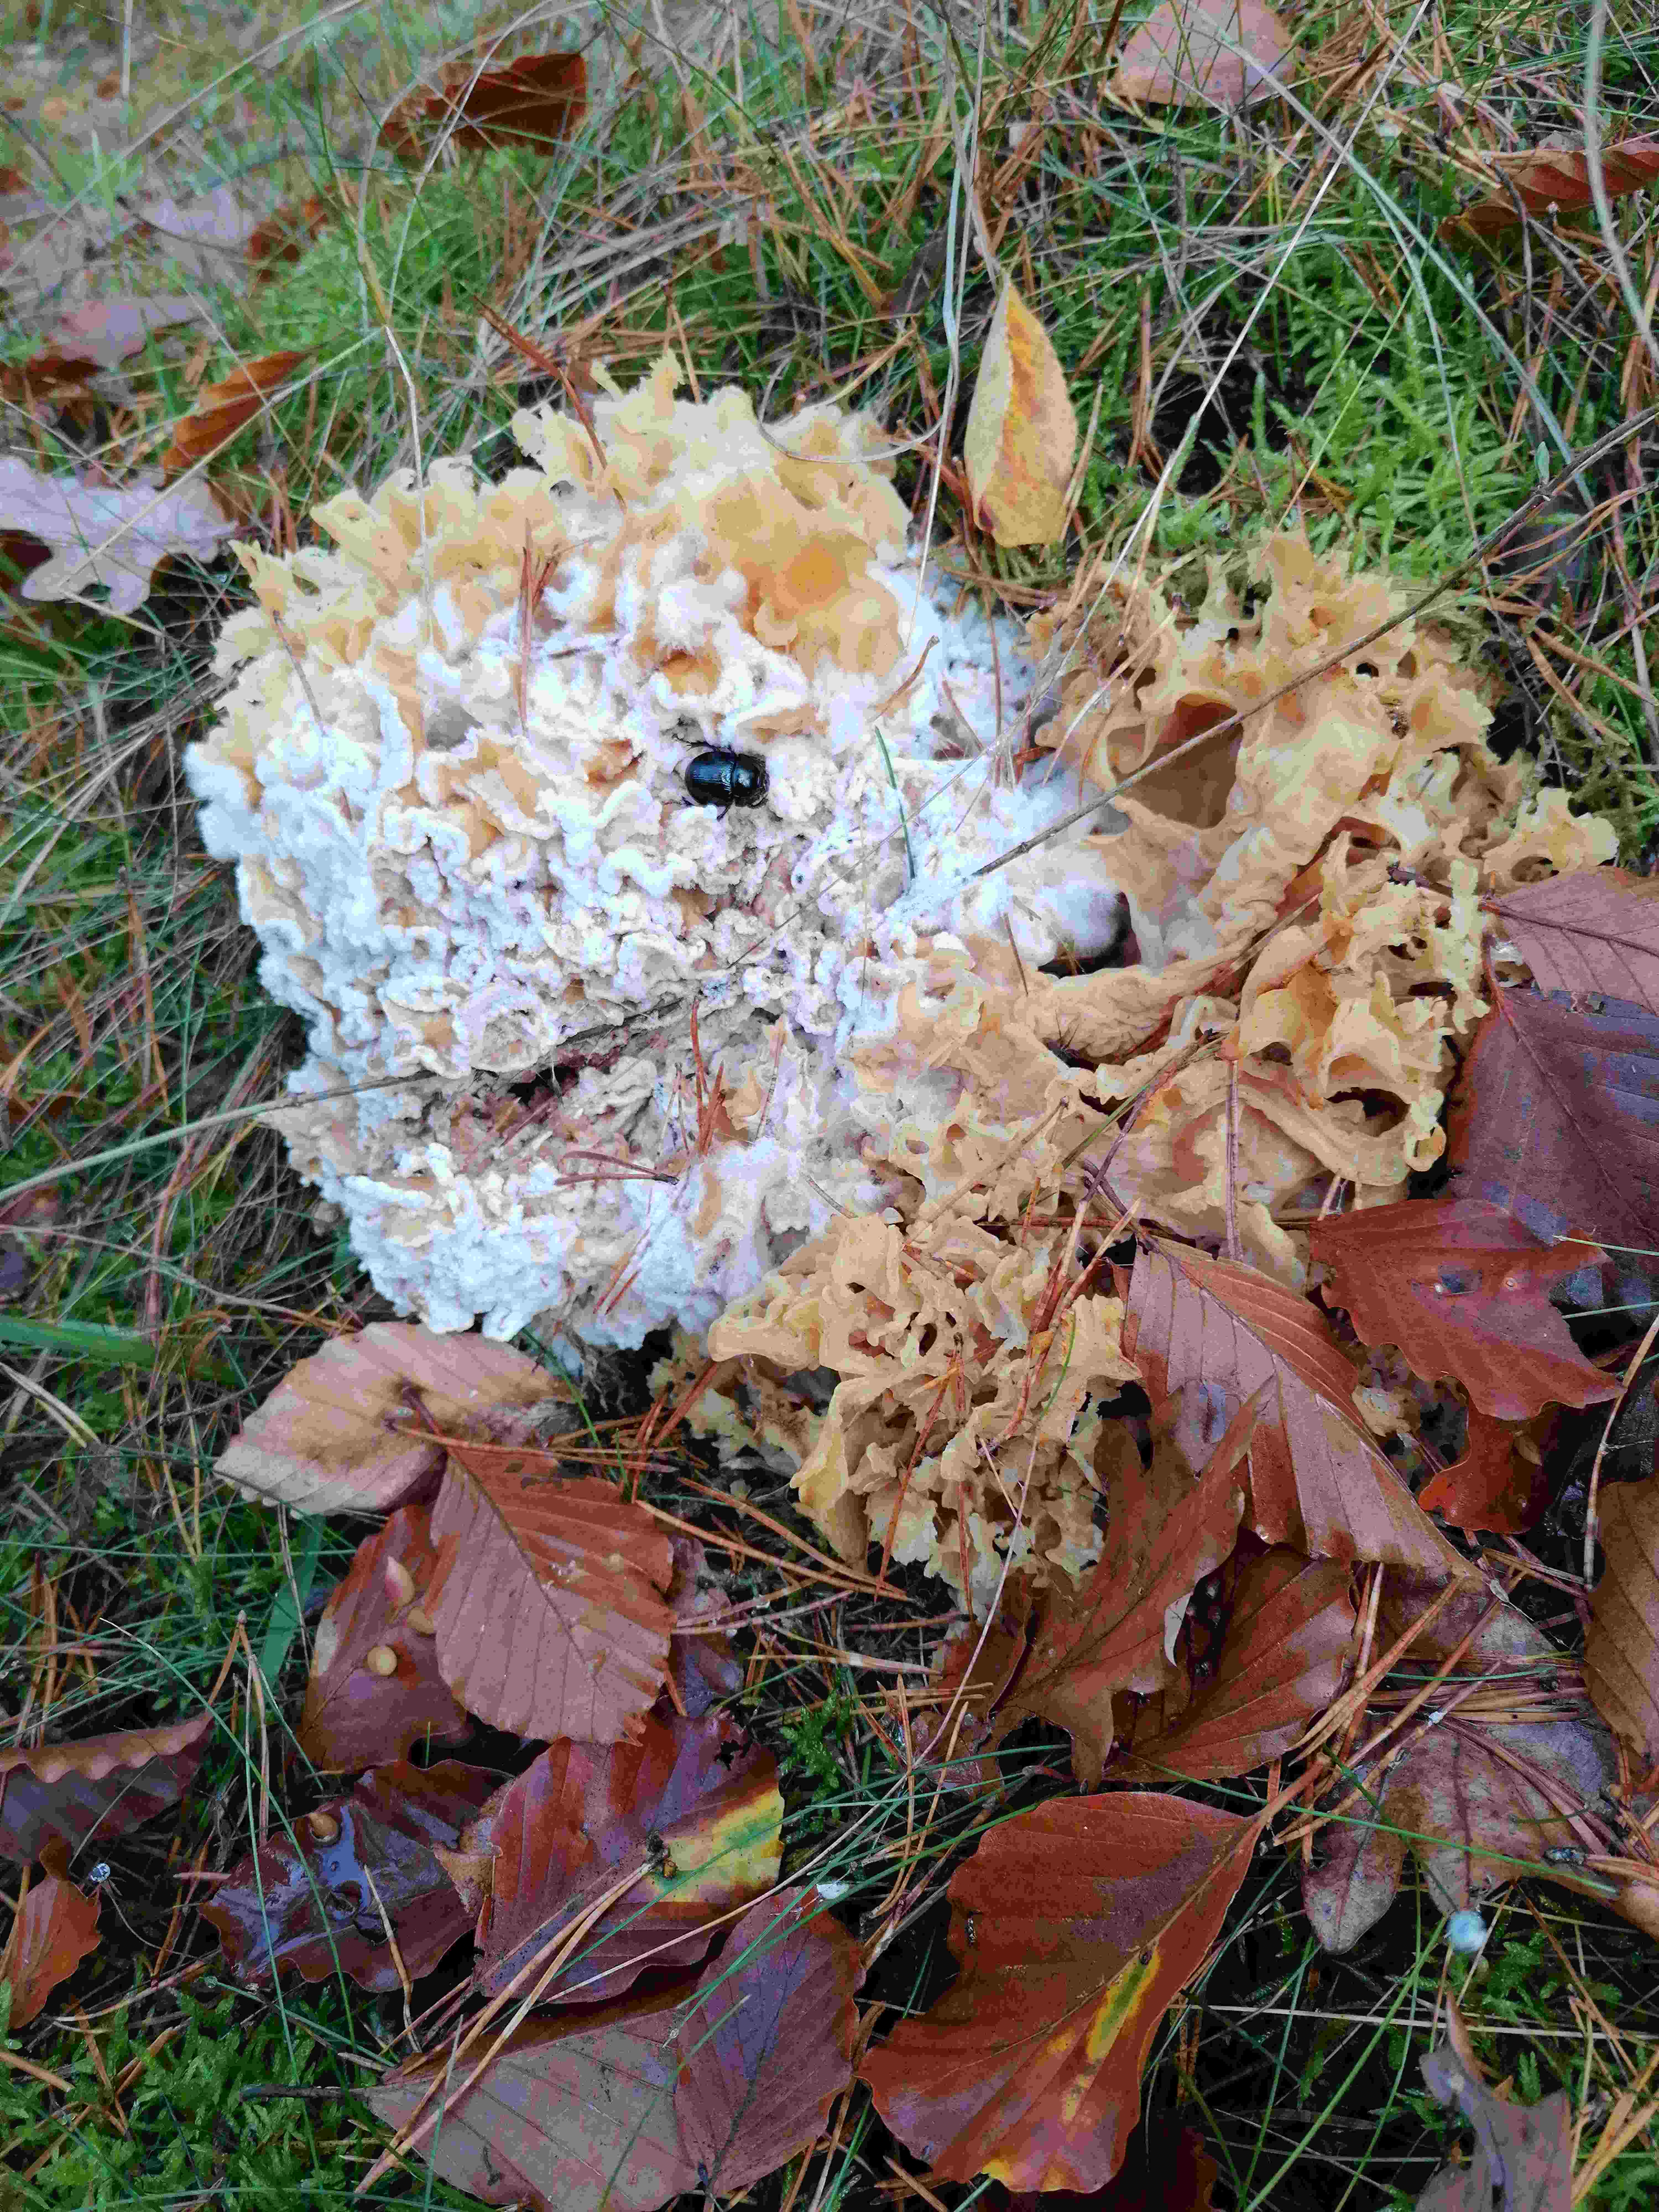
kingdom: Fungi
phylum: Basidiomycota
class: Agaricomycetes
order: Polyporales
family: Sparassidaceae
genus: Sparassis
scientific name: Sparassis crispa
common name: kruset blomkålssvamp
